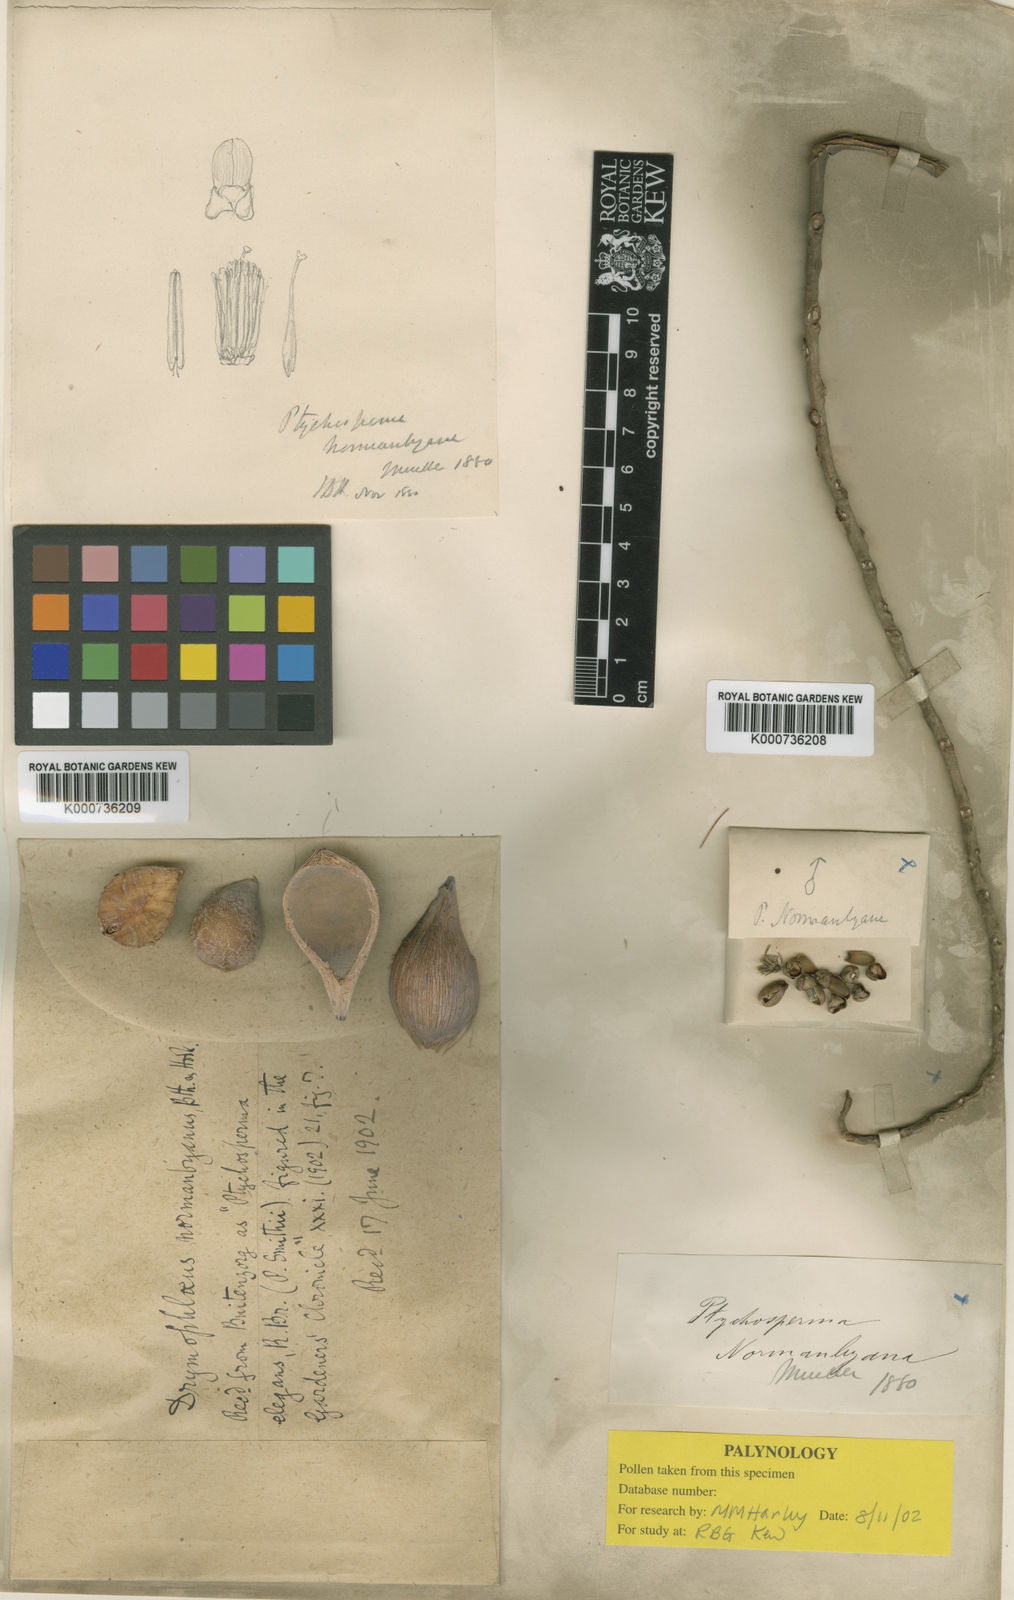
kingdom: Plantae
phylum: Tracheophyta
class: Liliopsida
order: Arecales
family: Arecaceae
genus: Normanbya
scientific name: Normanbya normanbyi
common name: Black palm
